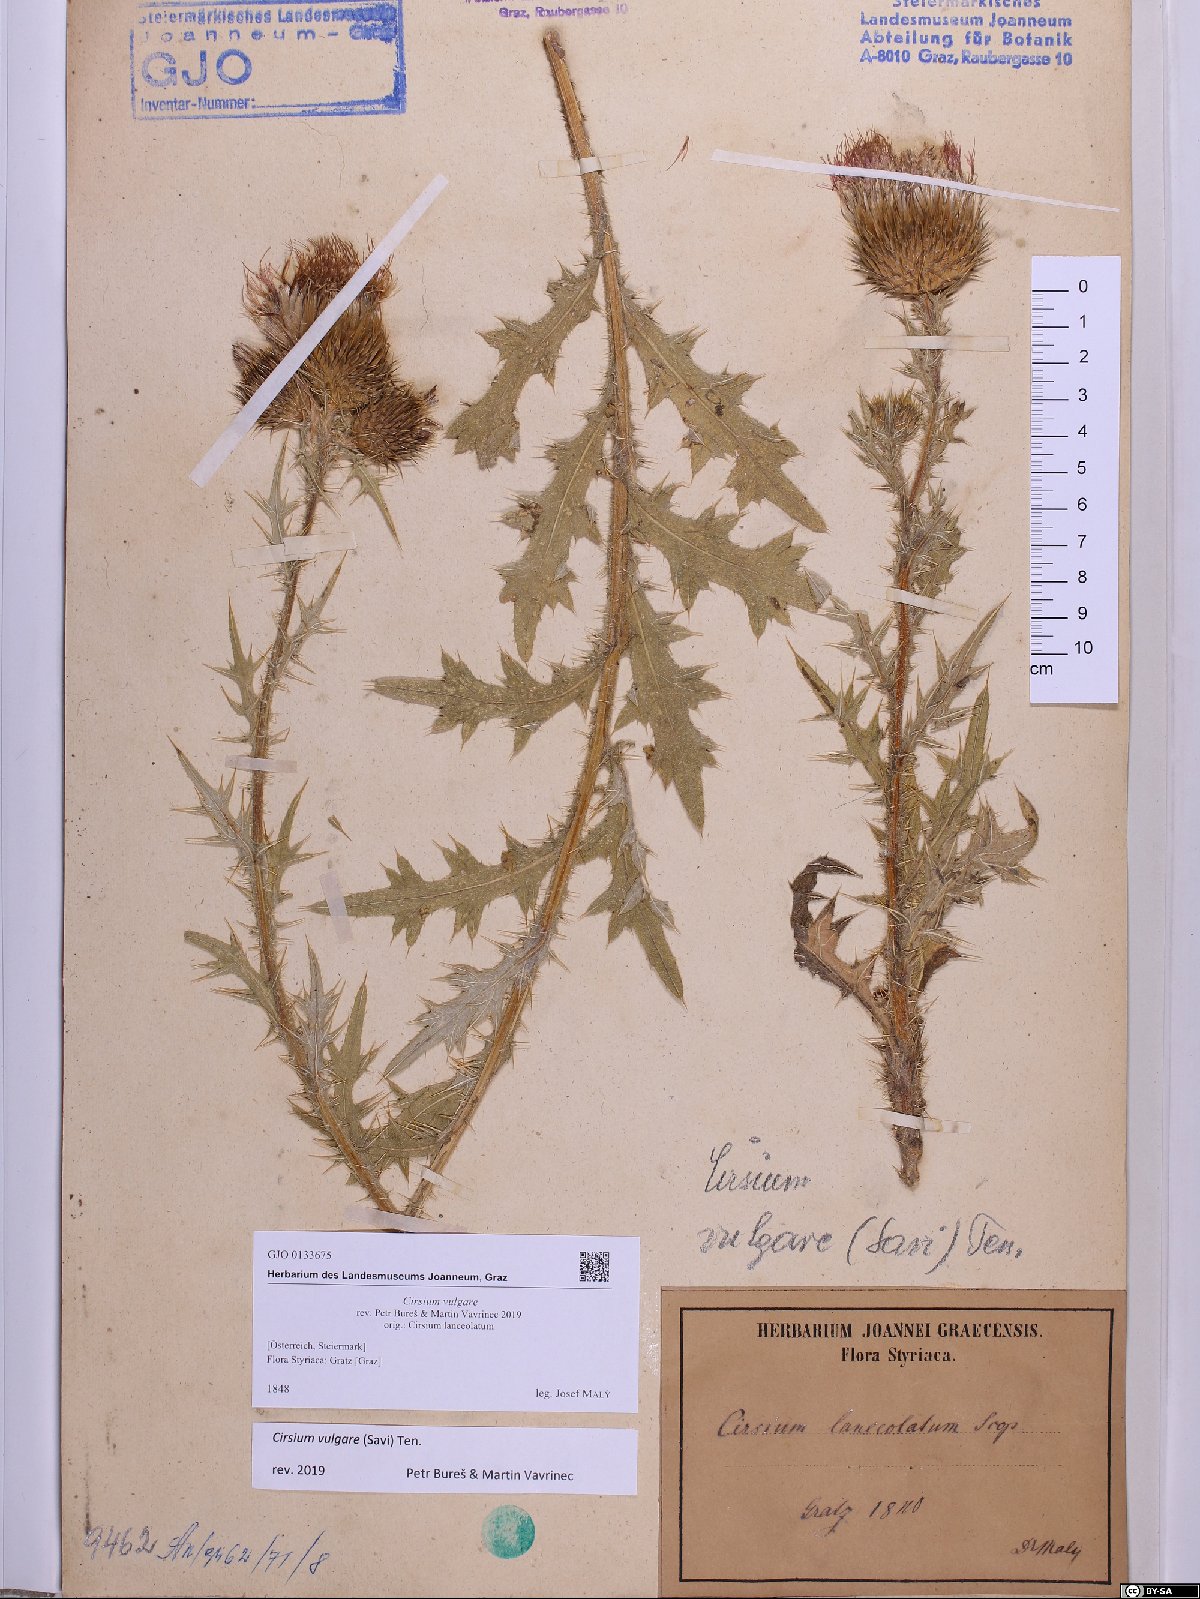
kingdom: Plantae
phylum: Tracheophyta
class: Magnoliopsida
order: Asterales
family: Asteraceae
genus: Cirsium
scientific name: Cirsium vulgare
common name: Bull thistle
